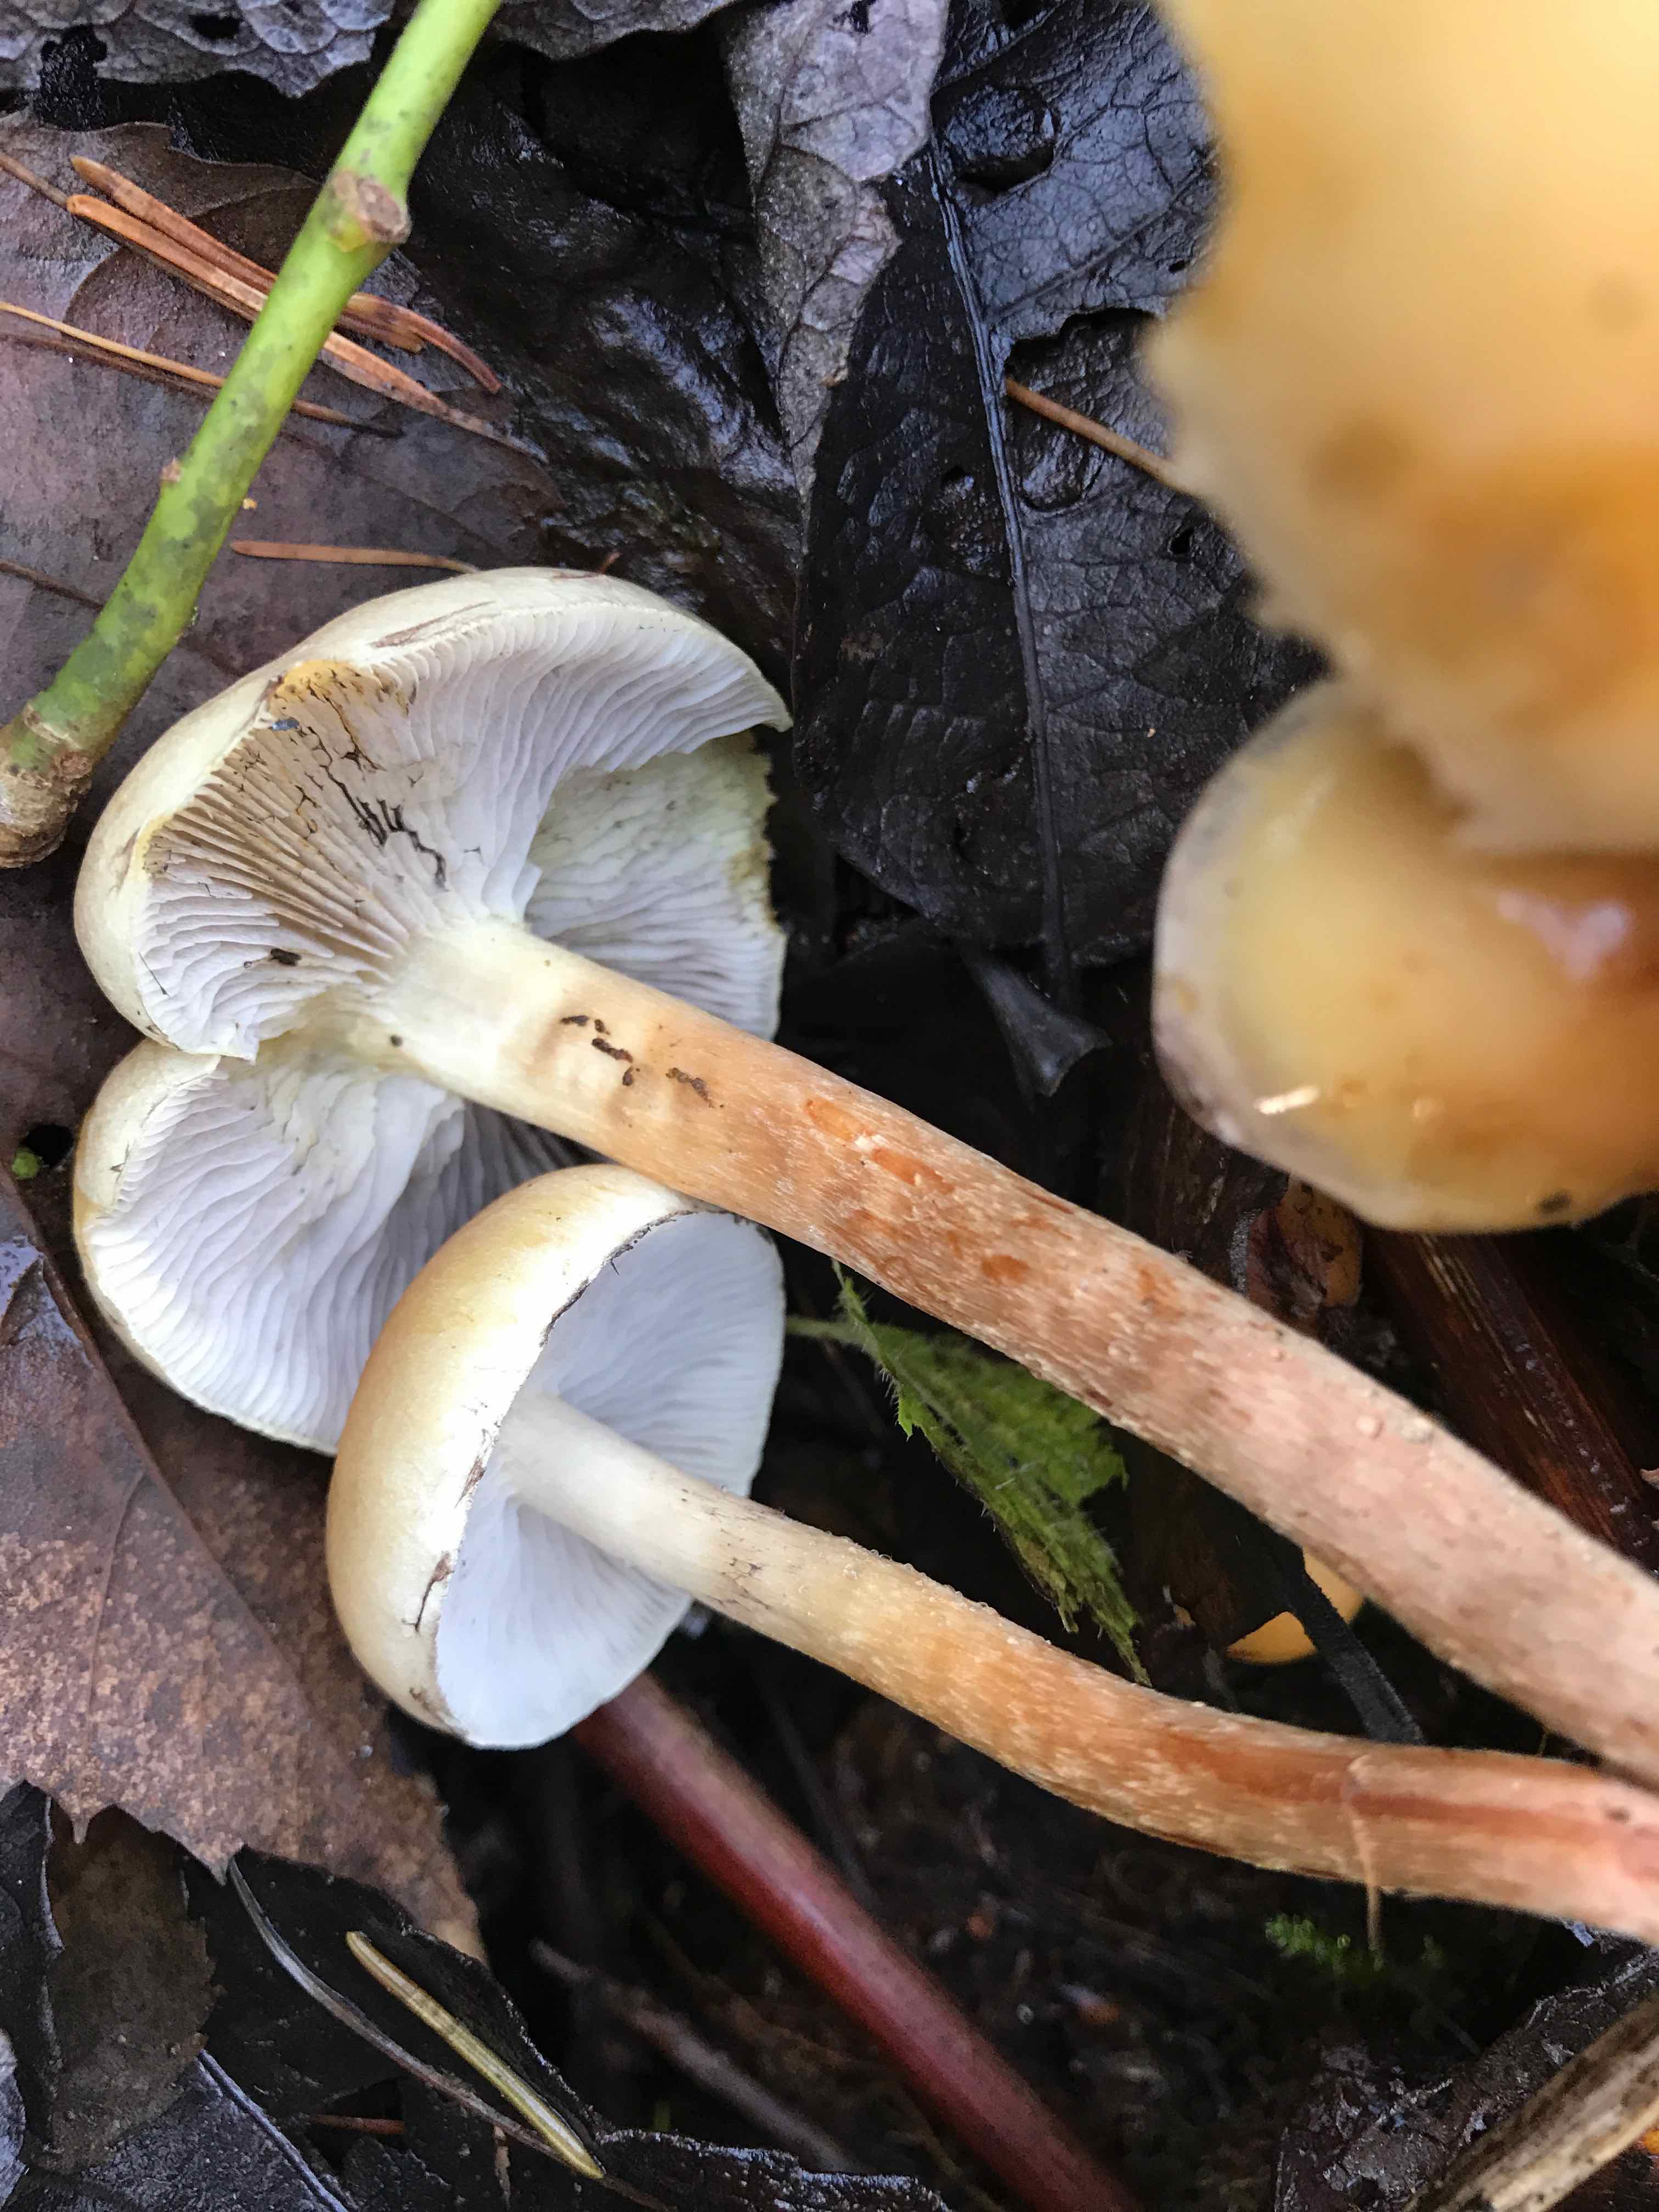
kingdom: Fungi
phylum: Basidiomycota
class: Agaricomycetes
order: Agaricales
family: Strophariaceae
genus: Hypholoma
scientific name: Hypholoma capnoides
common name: gran-svovlhat
